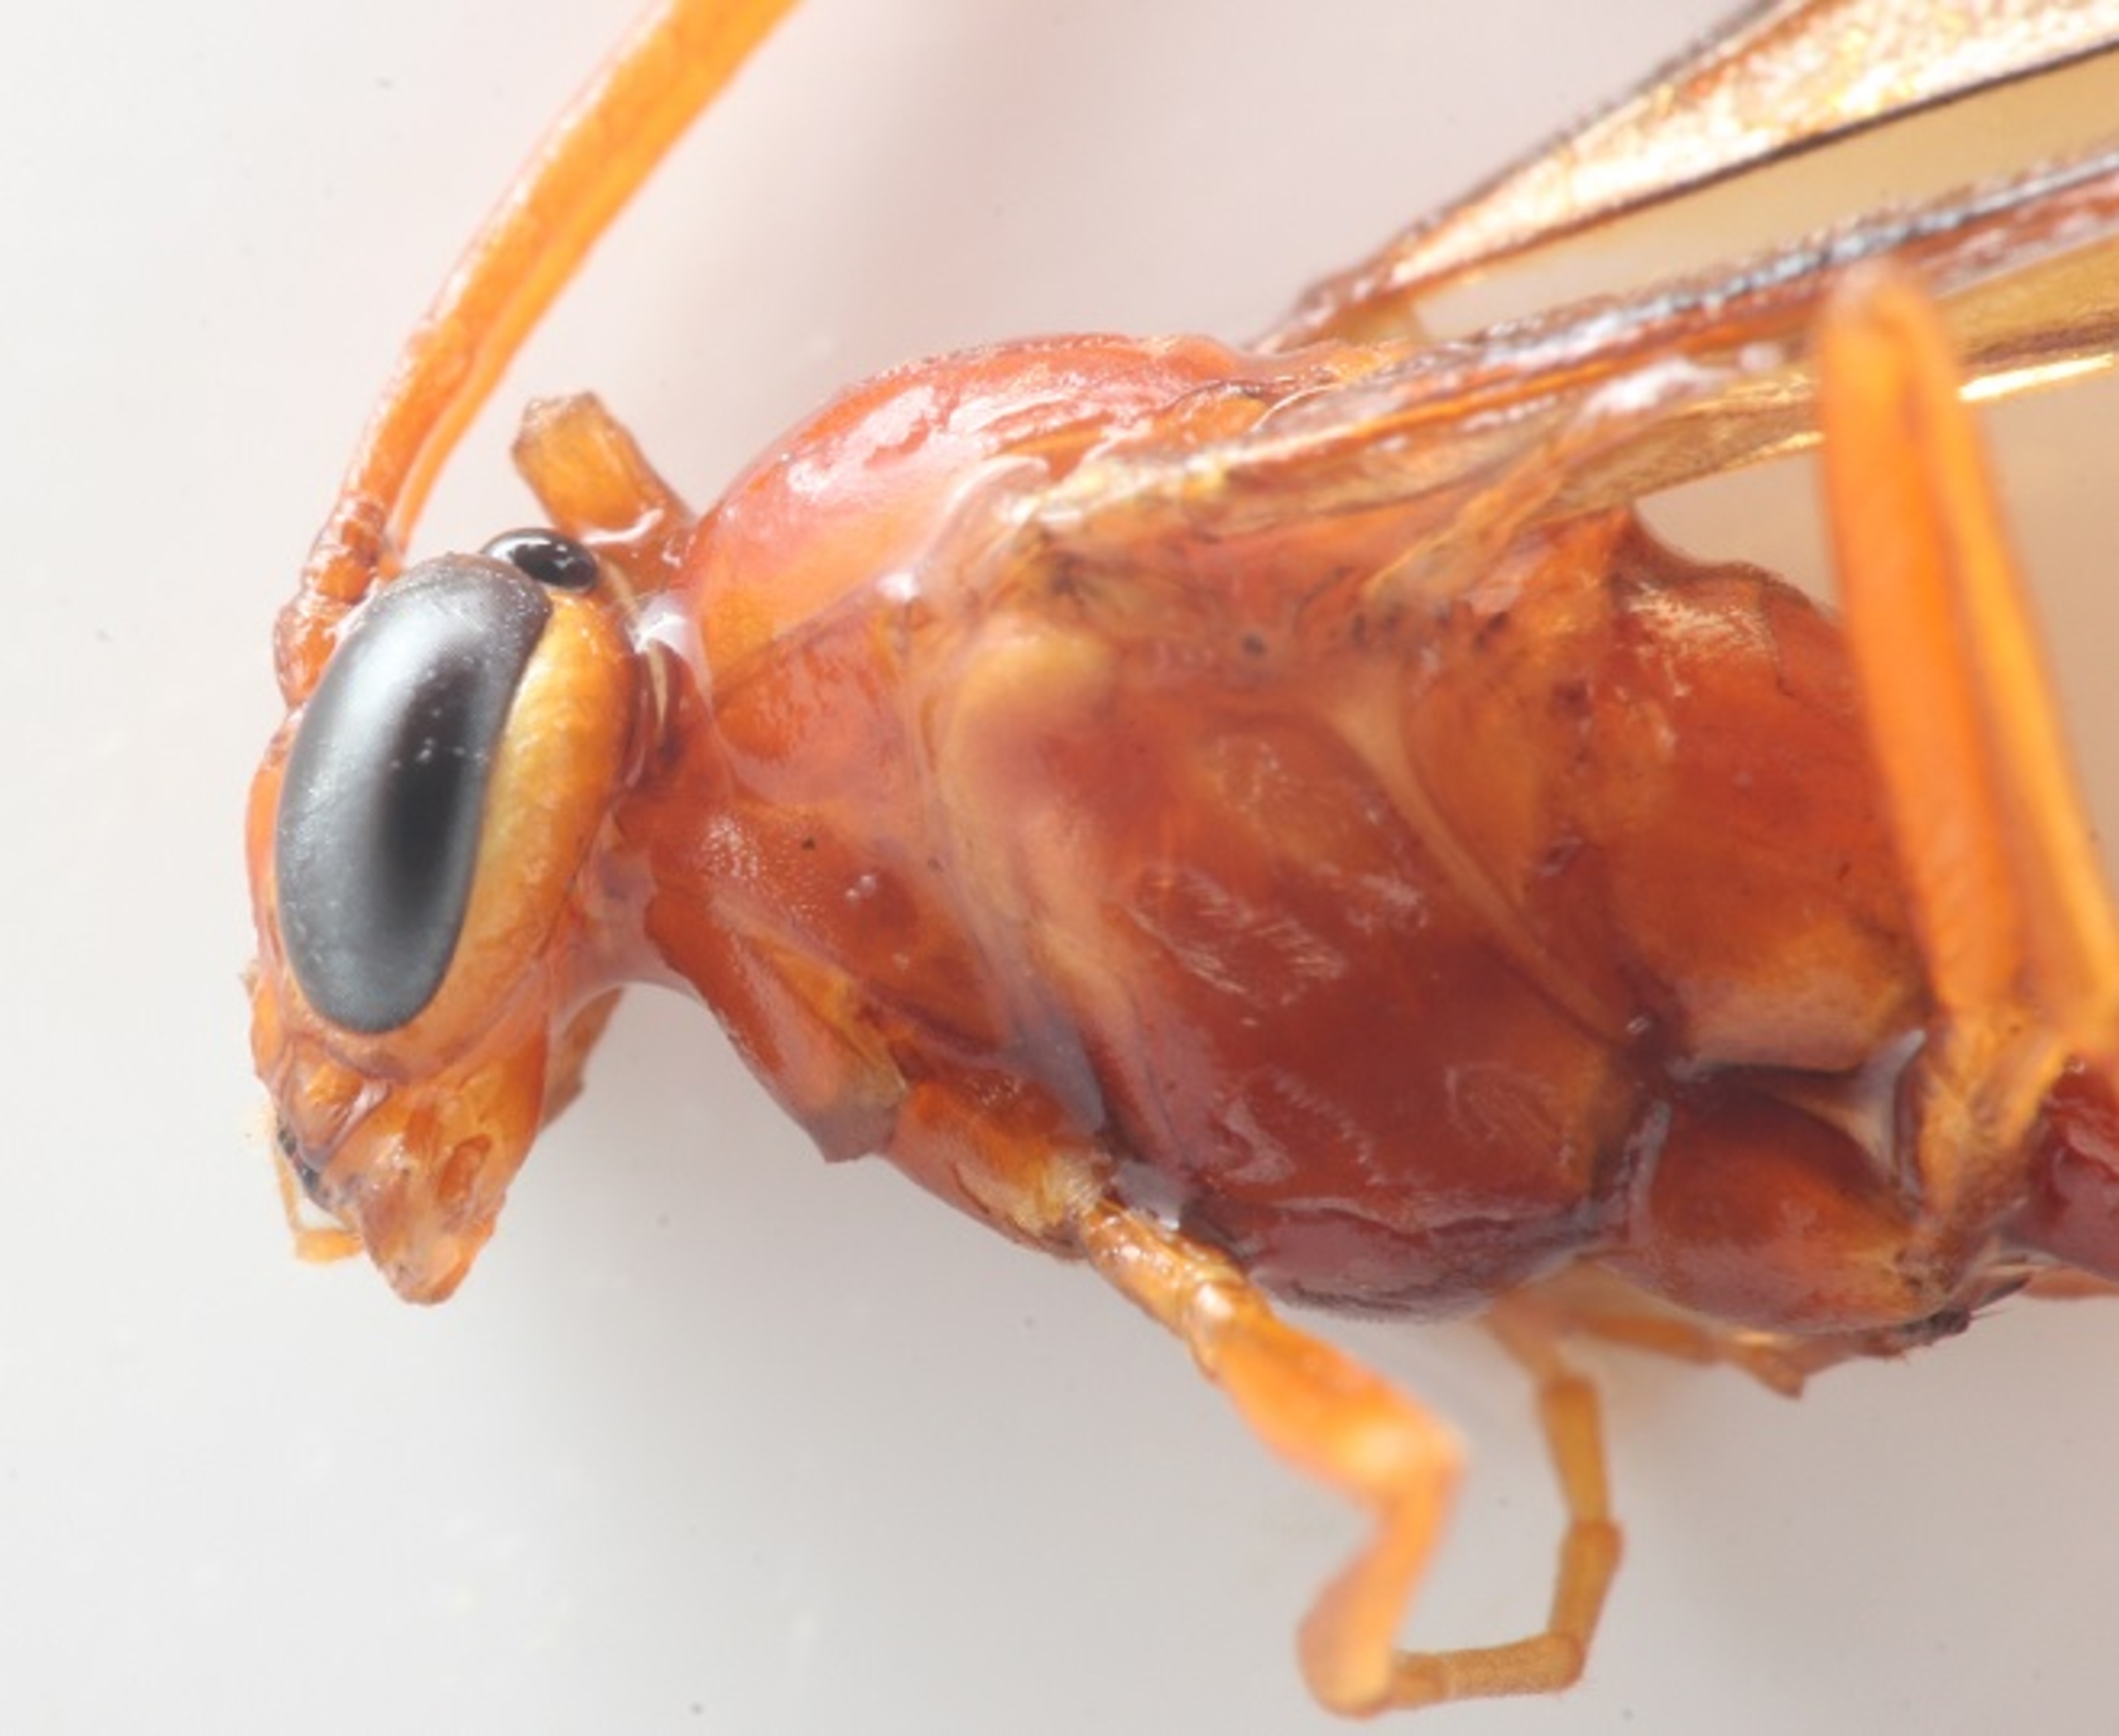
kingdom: Animalia
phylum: Arthropoda
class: Insecta
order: Hymenoptera
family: Ichneumonidae
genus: Ophion
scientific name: Ophion
